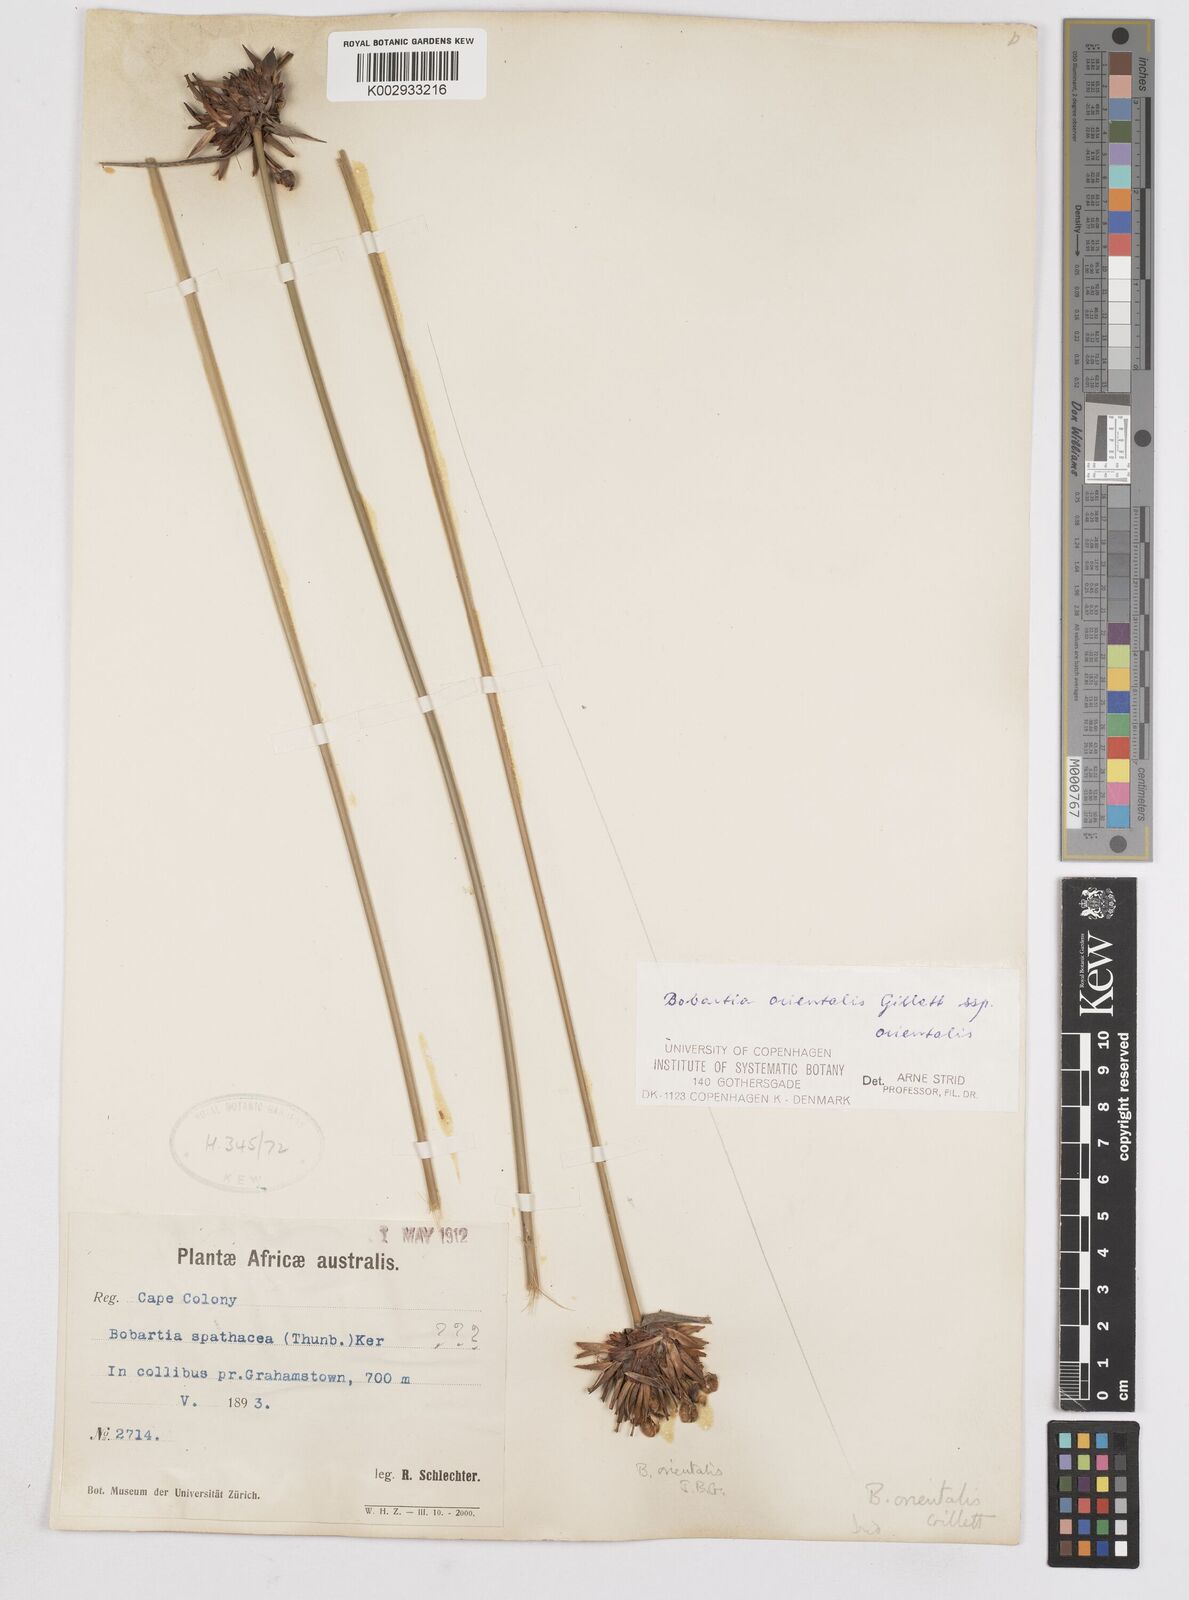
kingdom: Plantae
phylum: Tracheophyta
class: Liliopsida
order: Asparagales
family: Iridaceae
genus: Bobartia
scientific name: Bobartia orientalis
